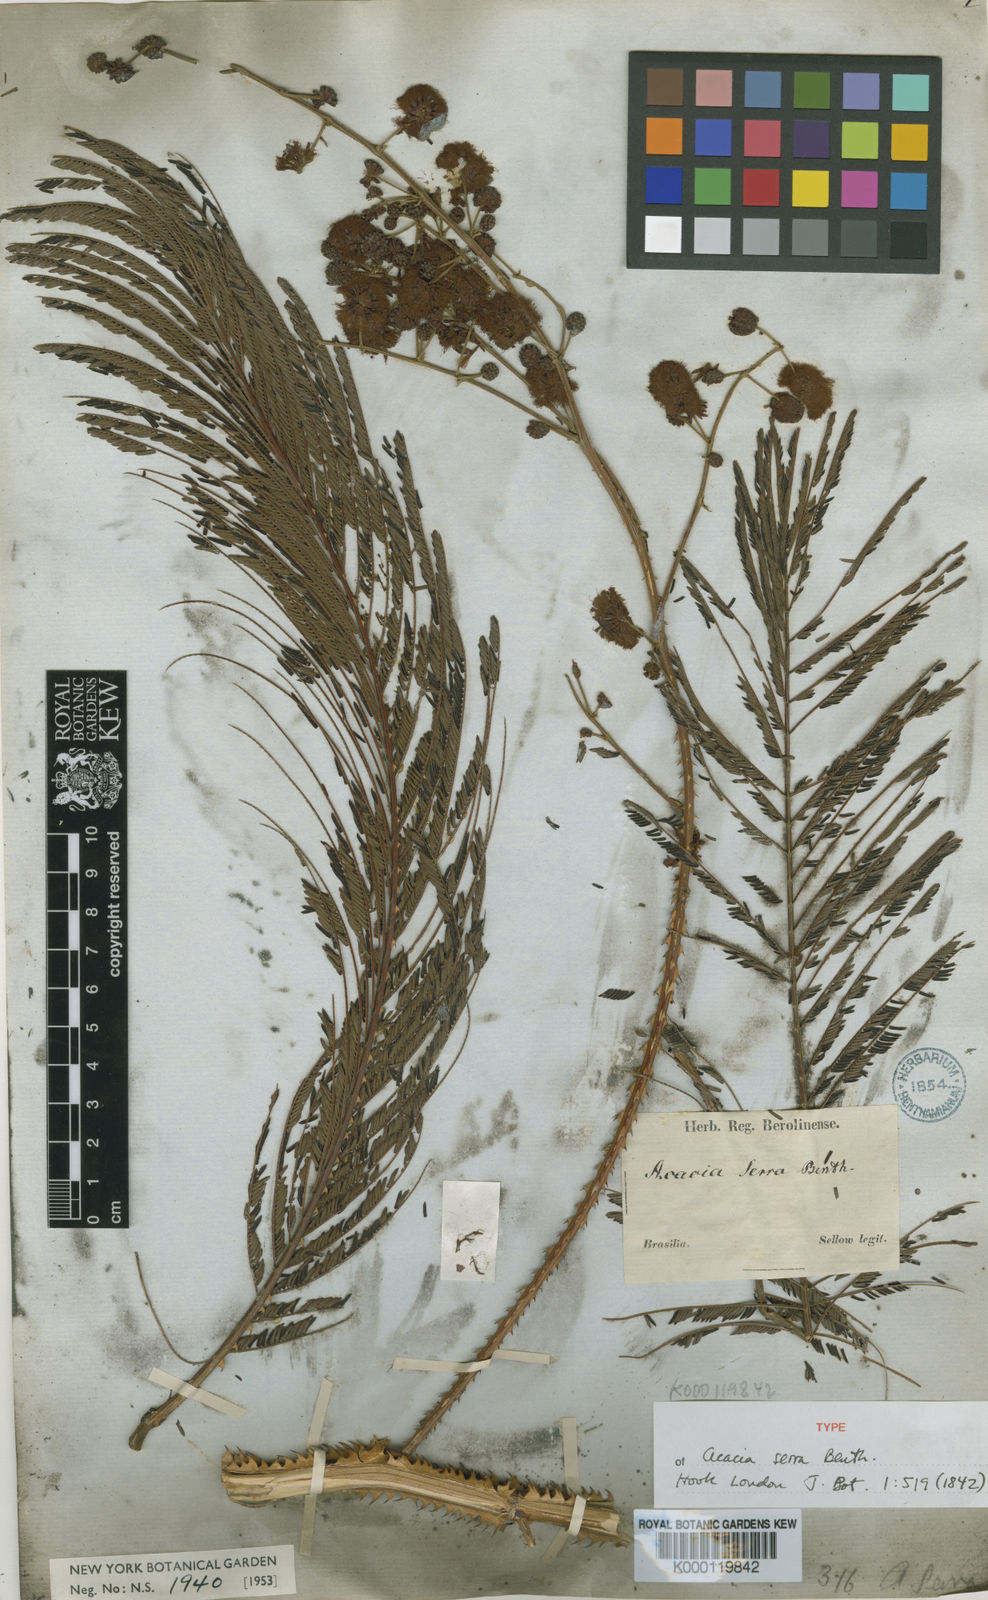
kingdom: Plantae
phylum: Tracheophyta
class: Magnoliopsida
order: Fabales
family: Fabaceae
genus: Senegalia
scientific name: Senegalia serra
